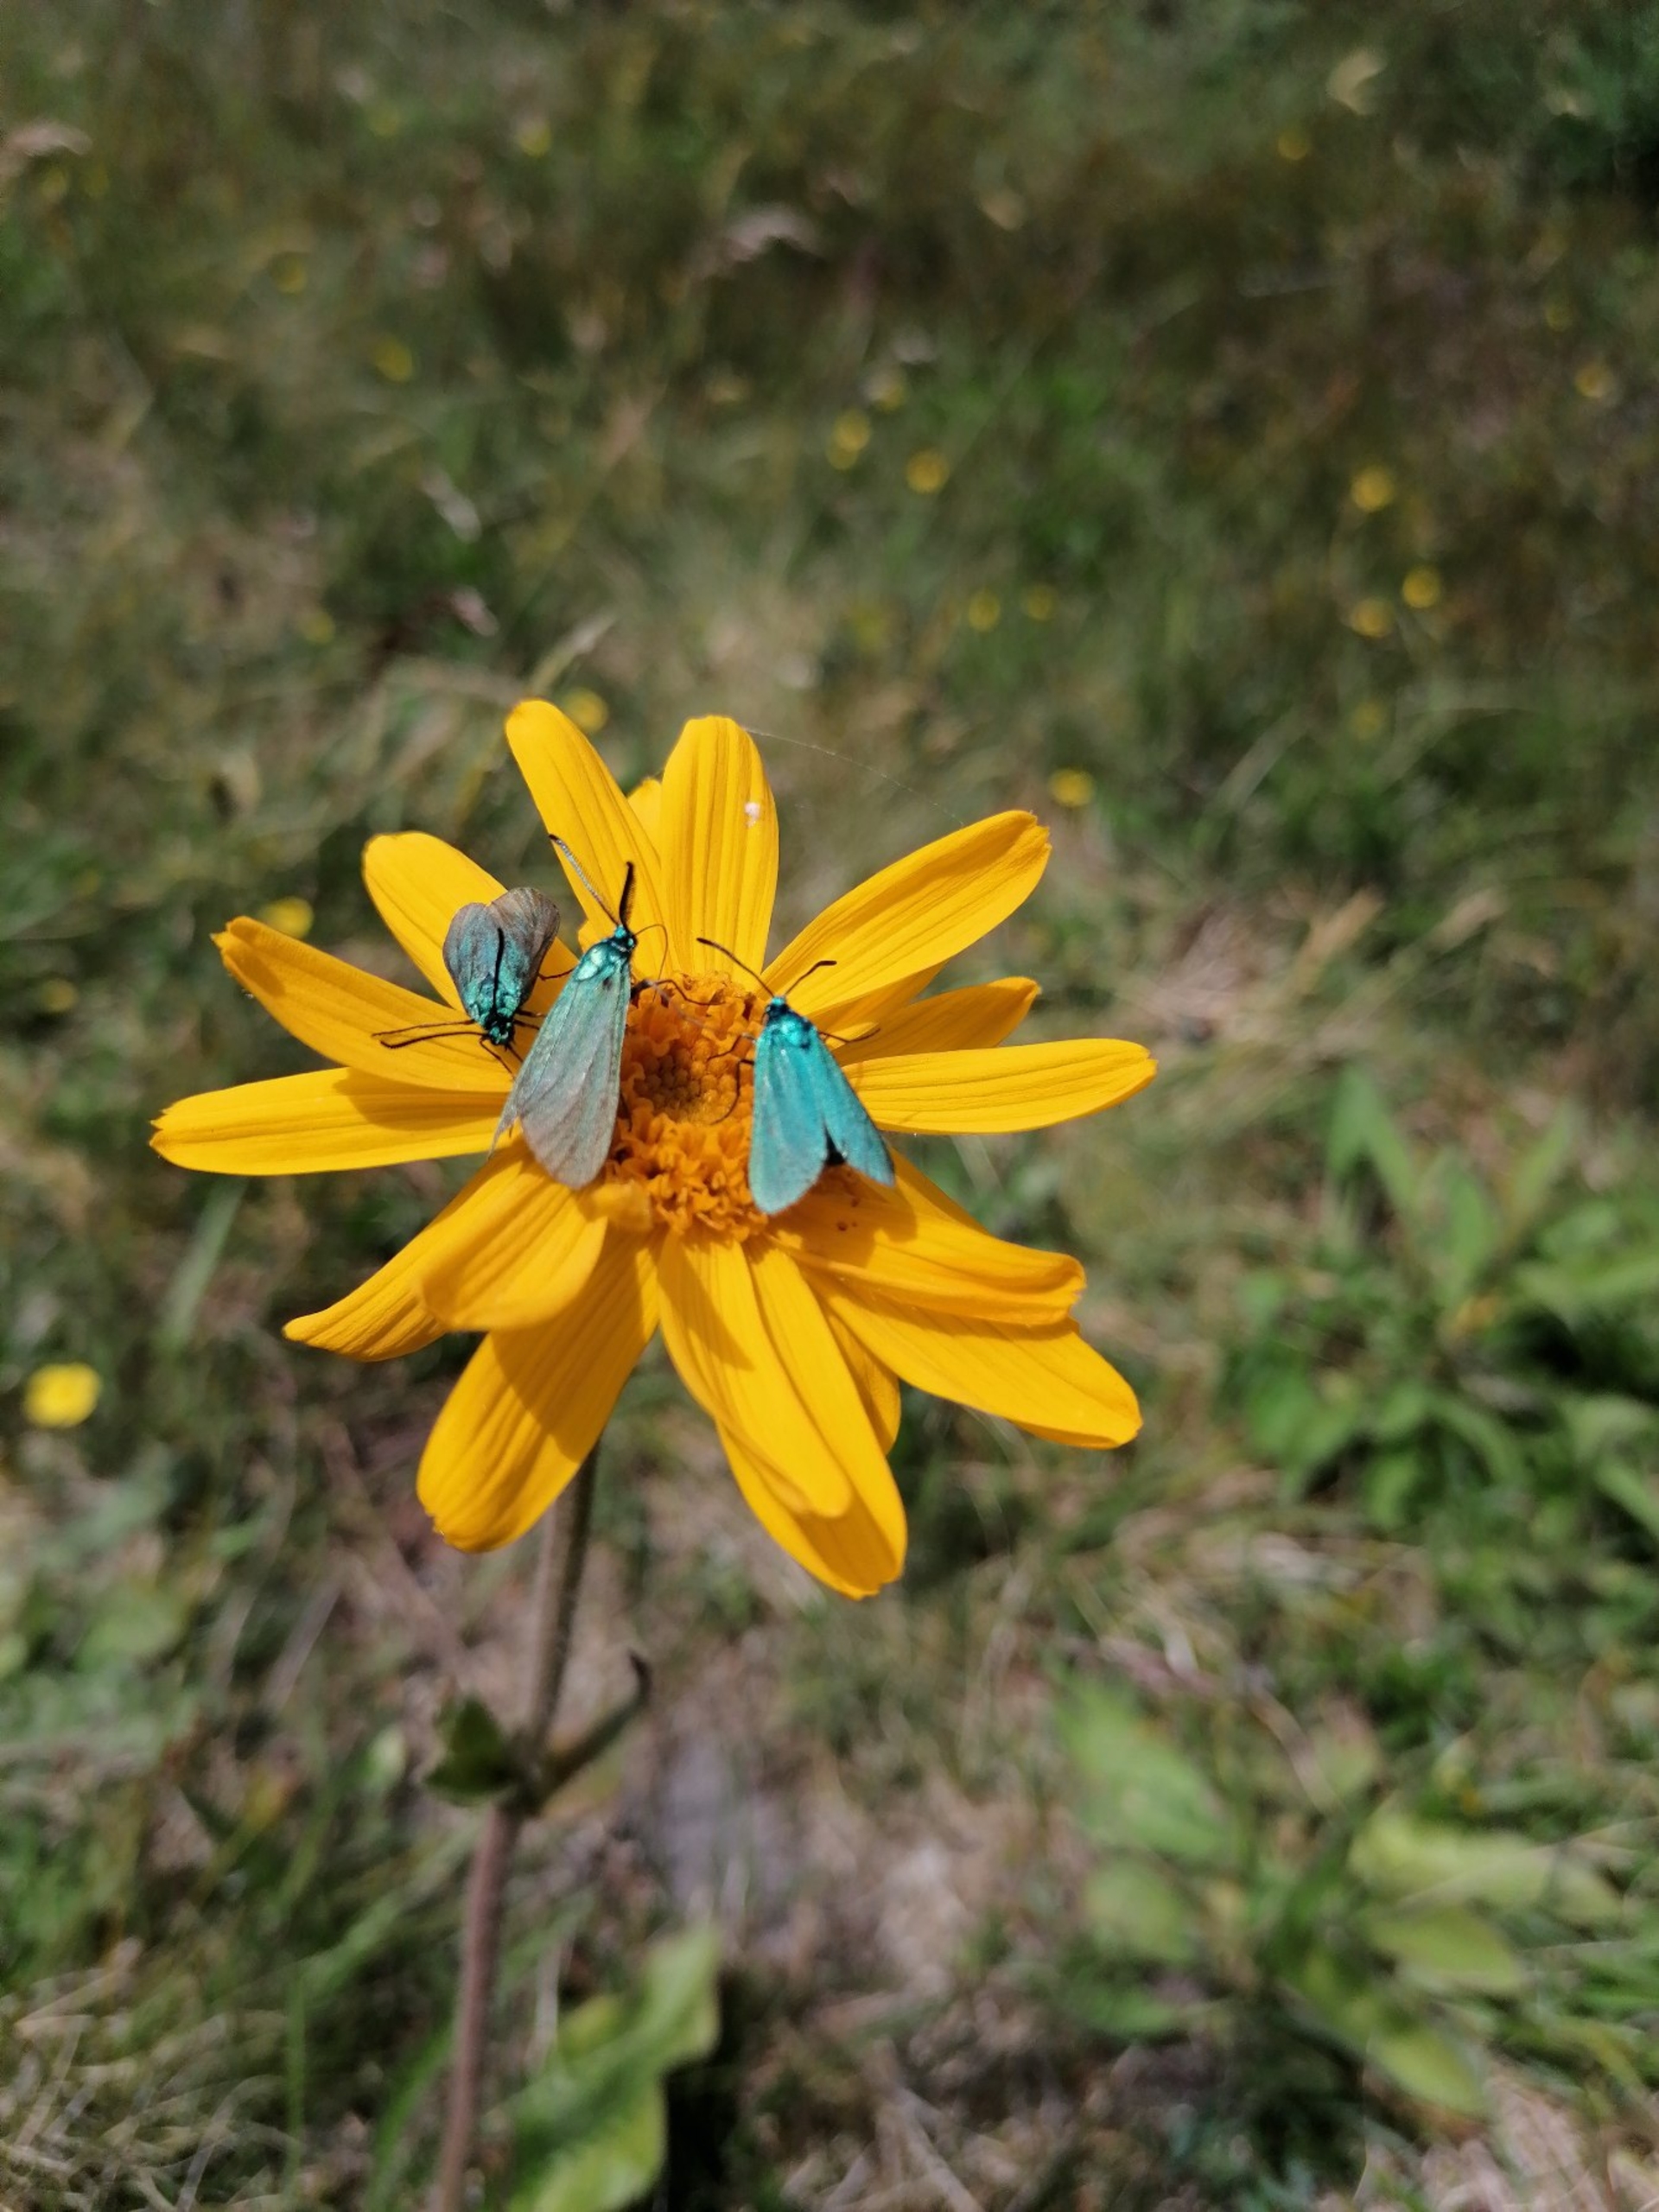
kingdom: Animalia
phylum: Arthropoda
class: Insecta
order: Lepidoptera
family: Zygaenidae
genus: Adscita
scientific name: Adscita statices
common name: Metalvinge
